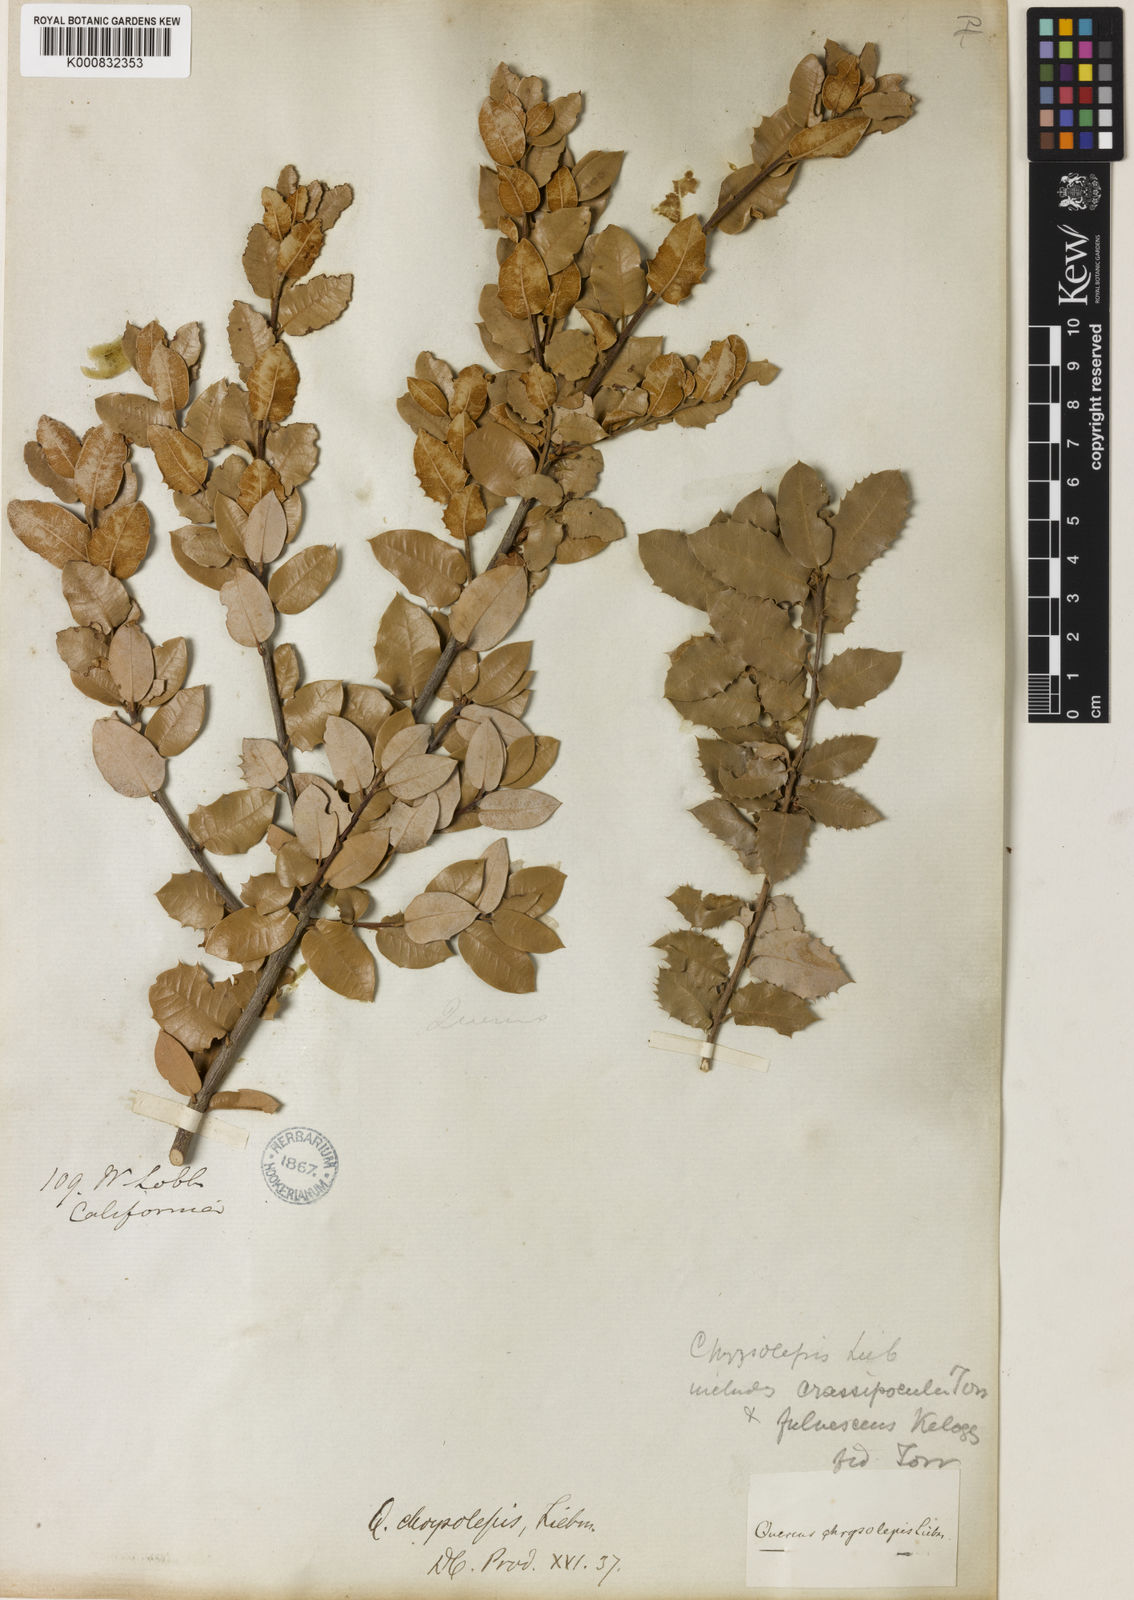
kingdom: Plantae
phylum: Tracheophyta
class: Magnoliopsida
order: Fagales
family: Fagaceae
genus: Quercus
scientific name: Quercus chrysolepis
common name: Canyon live oak
